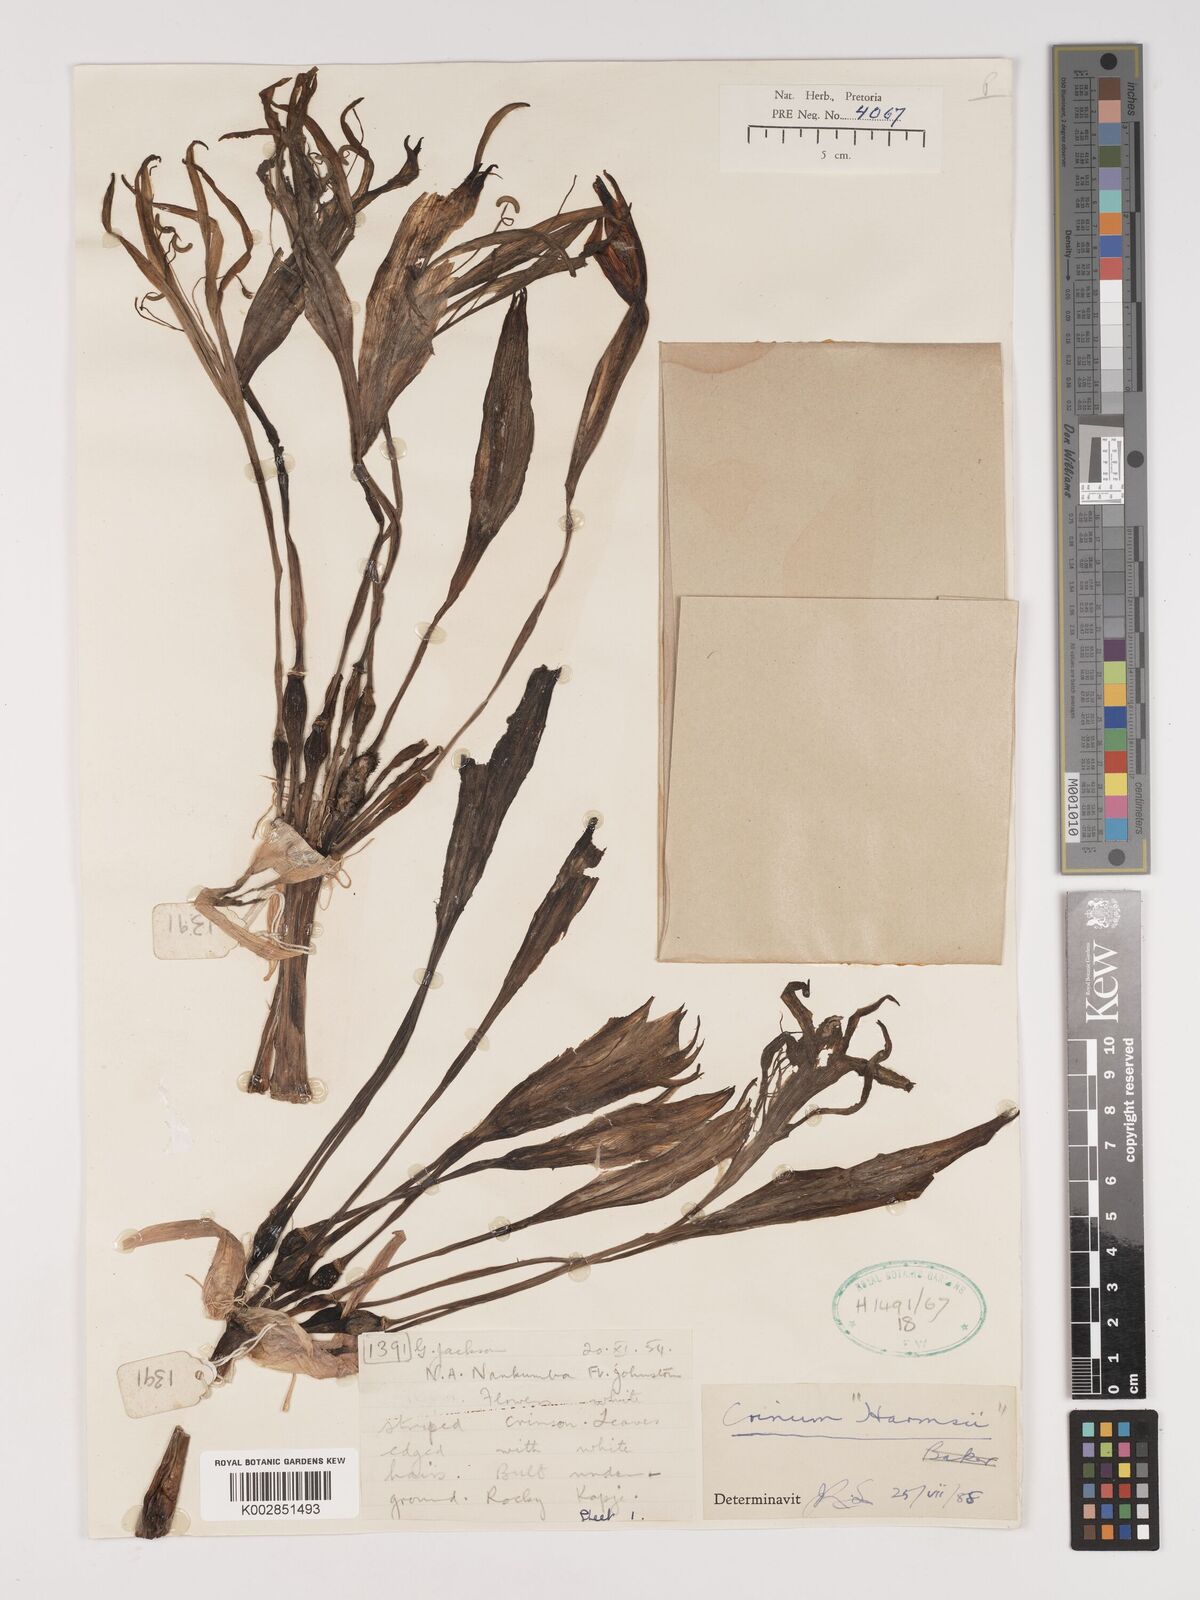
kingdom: Plantae
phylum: Tracheophyta
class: Liliopsida
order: Asparagales
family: Amaryllidaceae
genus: Crinum
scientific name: Crinum stuhlmannii
